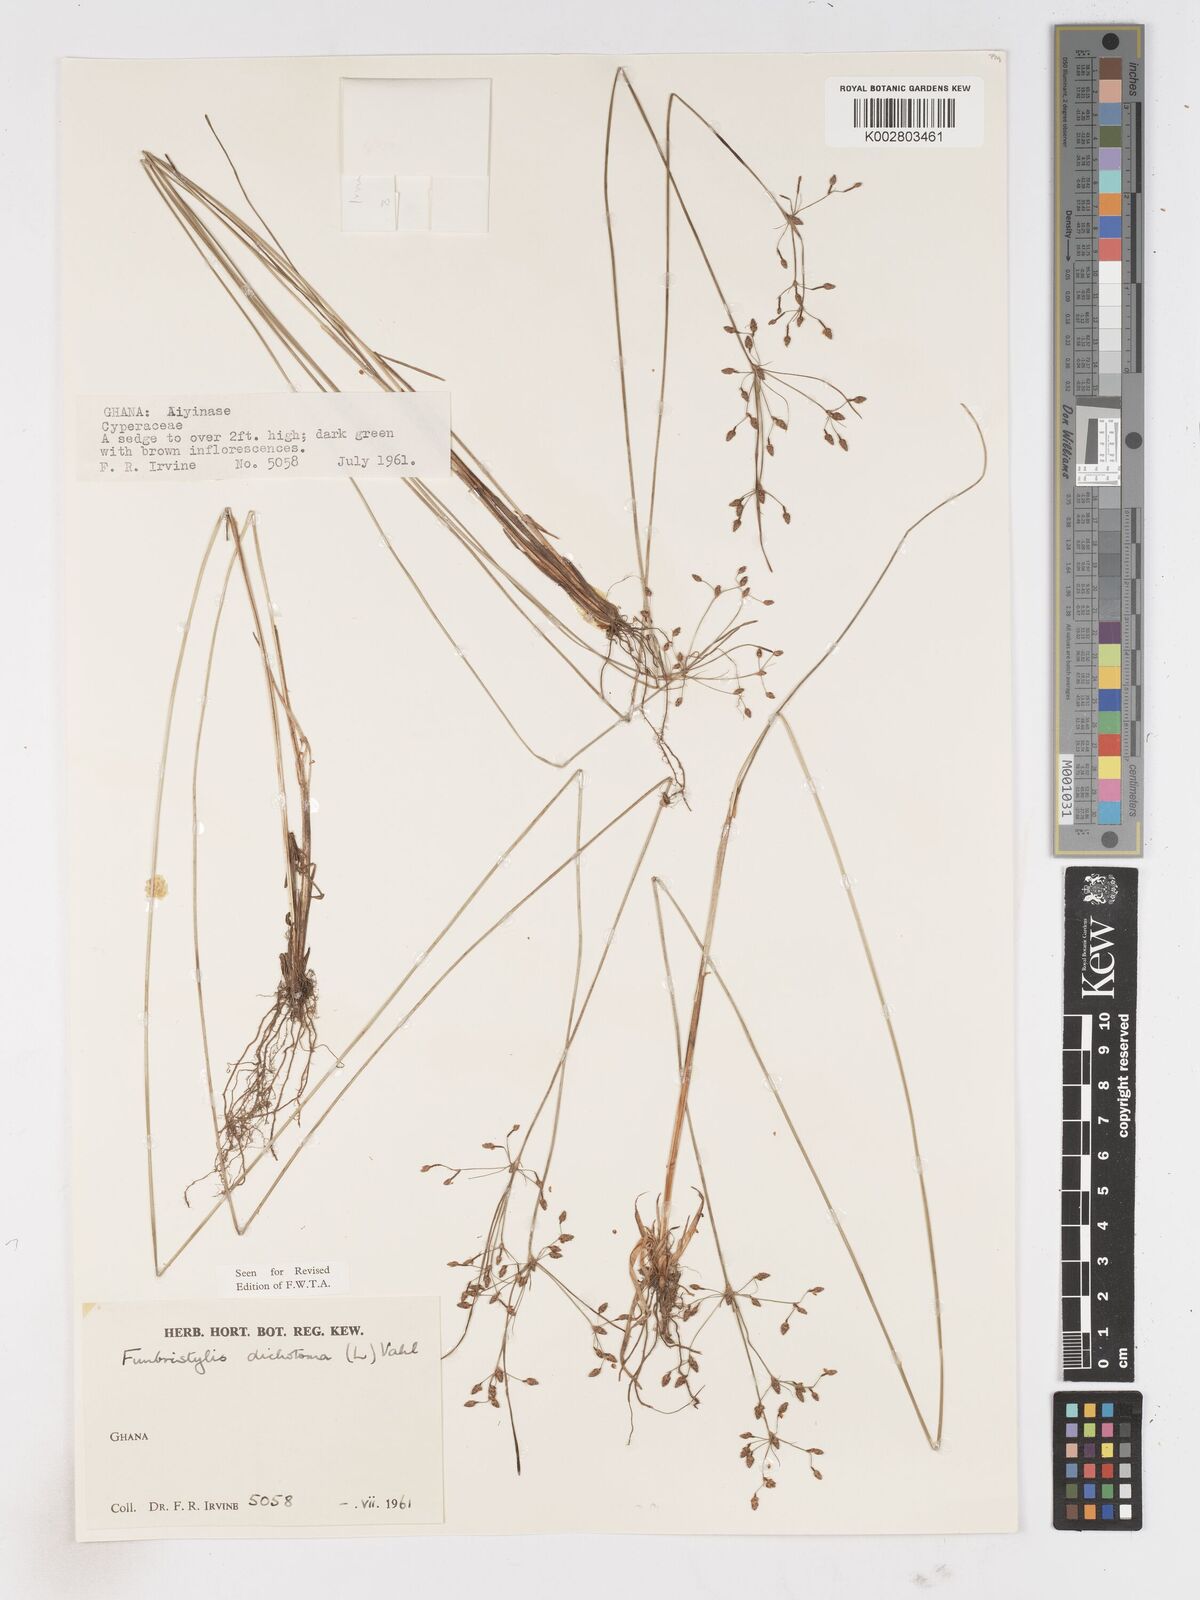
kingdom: Plantae
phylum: Tracheophyta
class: Liliopsida
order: Poales
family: Cyperaceae
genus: Fimbristylis
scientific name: Fimbristylis dichotoma
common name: Forked fimbry
